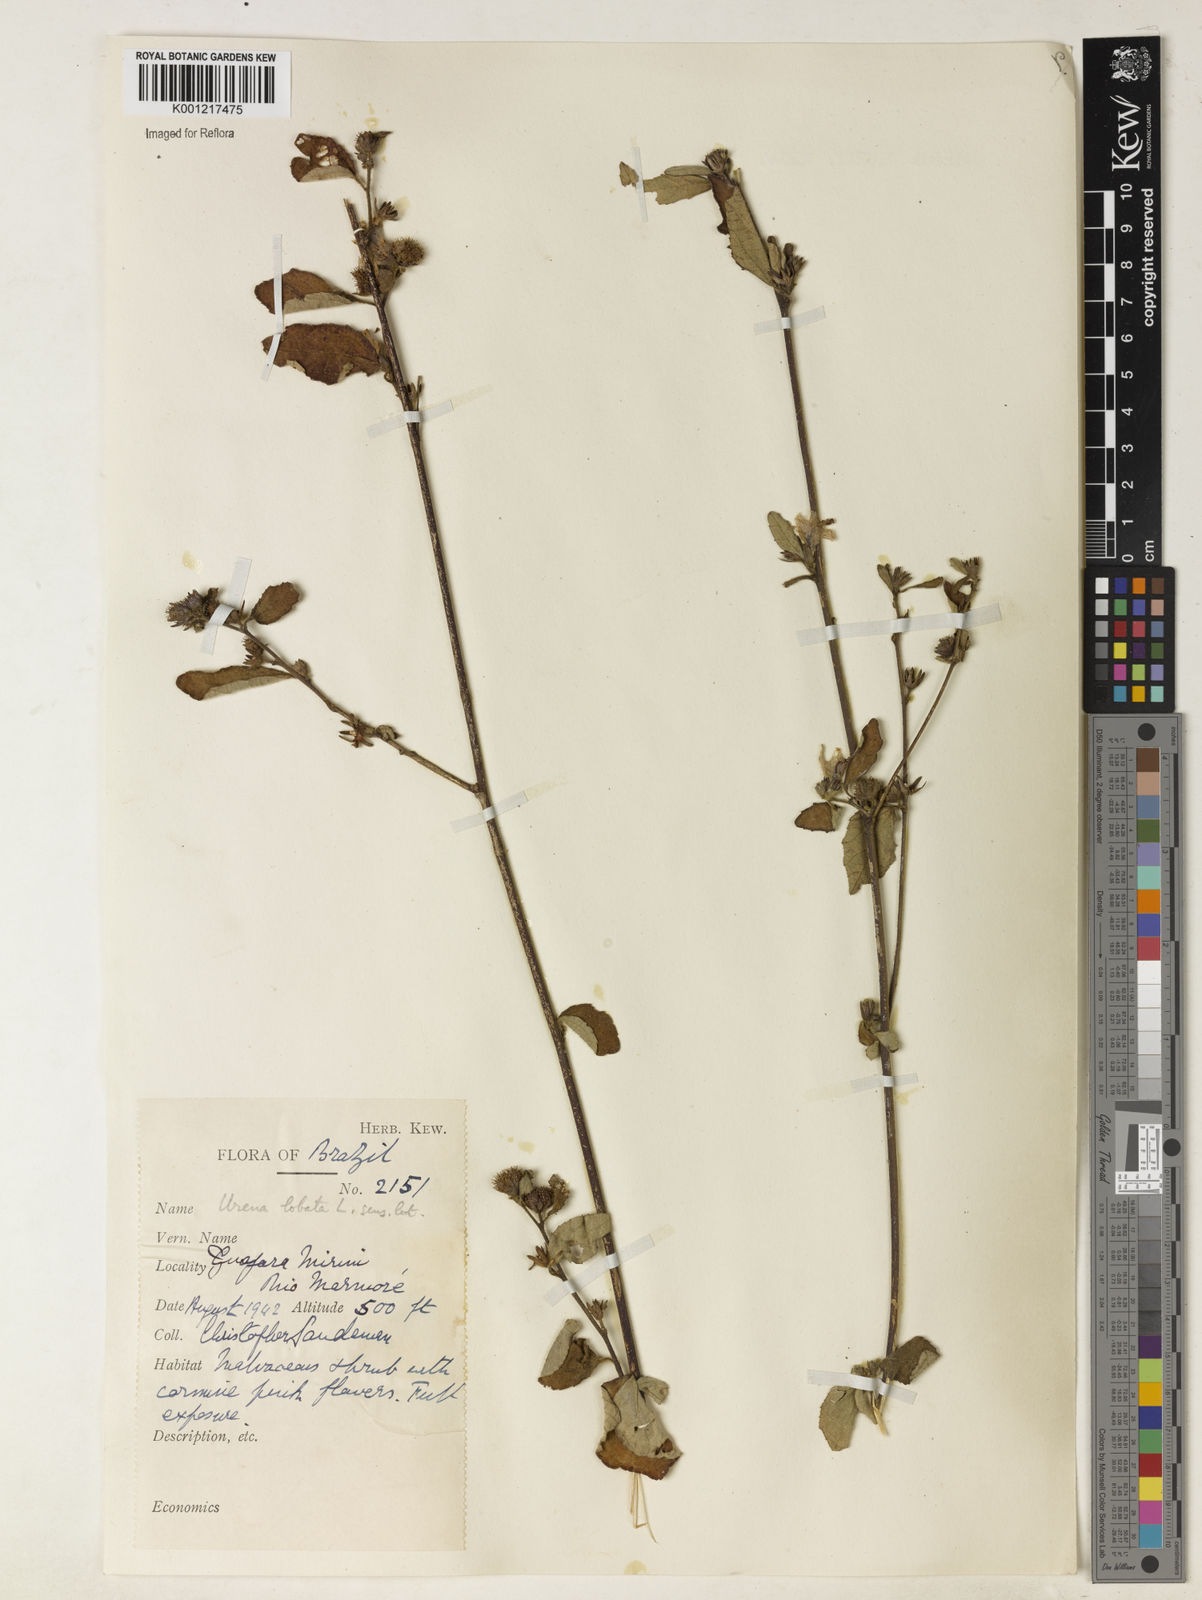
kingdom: Plantae
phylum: Tracheophyta
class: Magnoliopsida
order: Malvales
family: Malvaceae
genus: Urena
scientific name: Urena lobata
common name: Caesarweed
